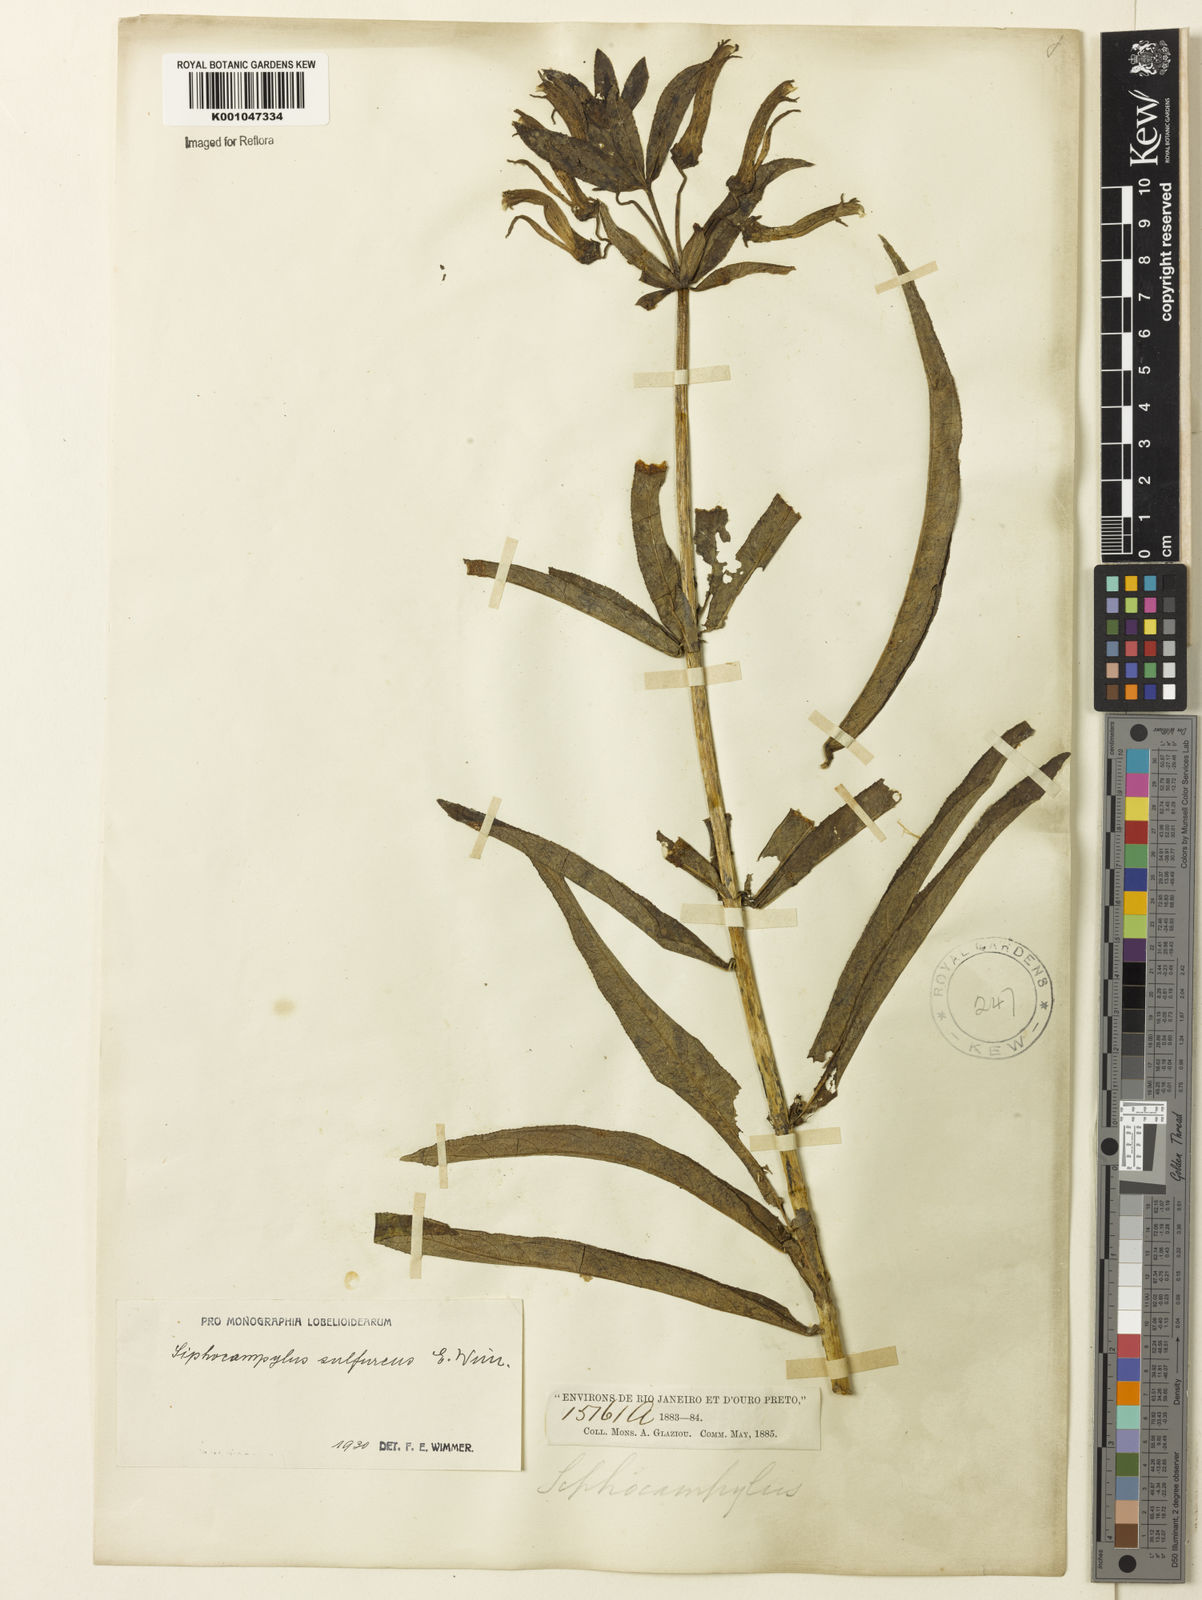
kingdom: Plantae
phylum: Tracheophyta
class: Magnoliopsida
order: Asterales
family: Campanulaceae
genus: Siphocampylus
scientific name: Siphocampylus sulfureus
